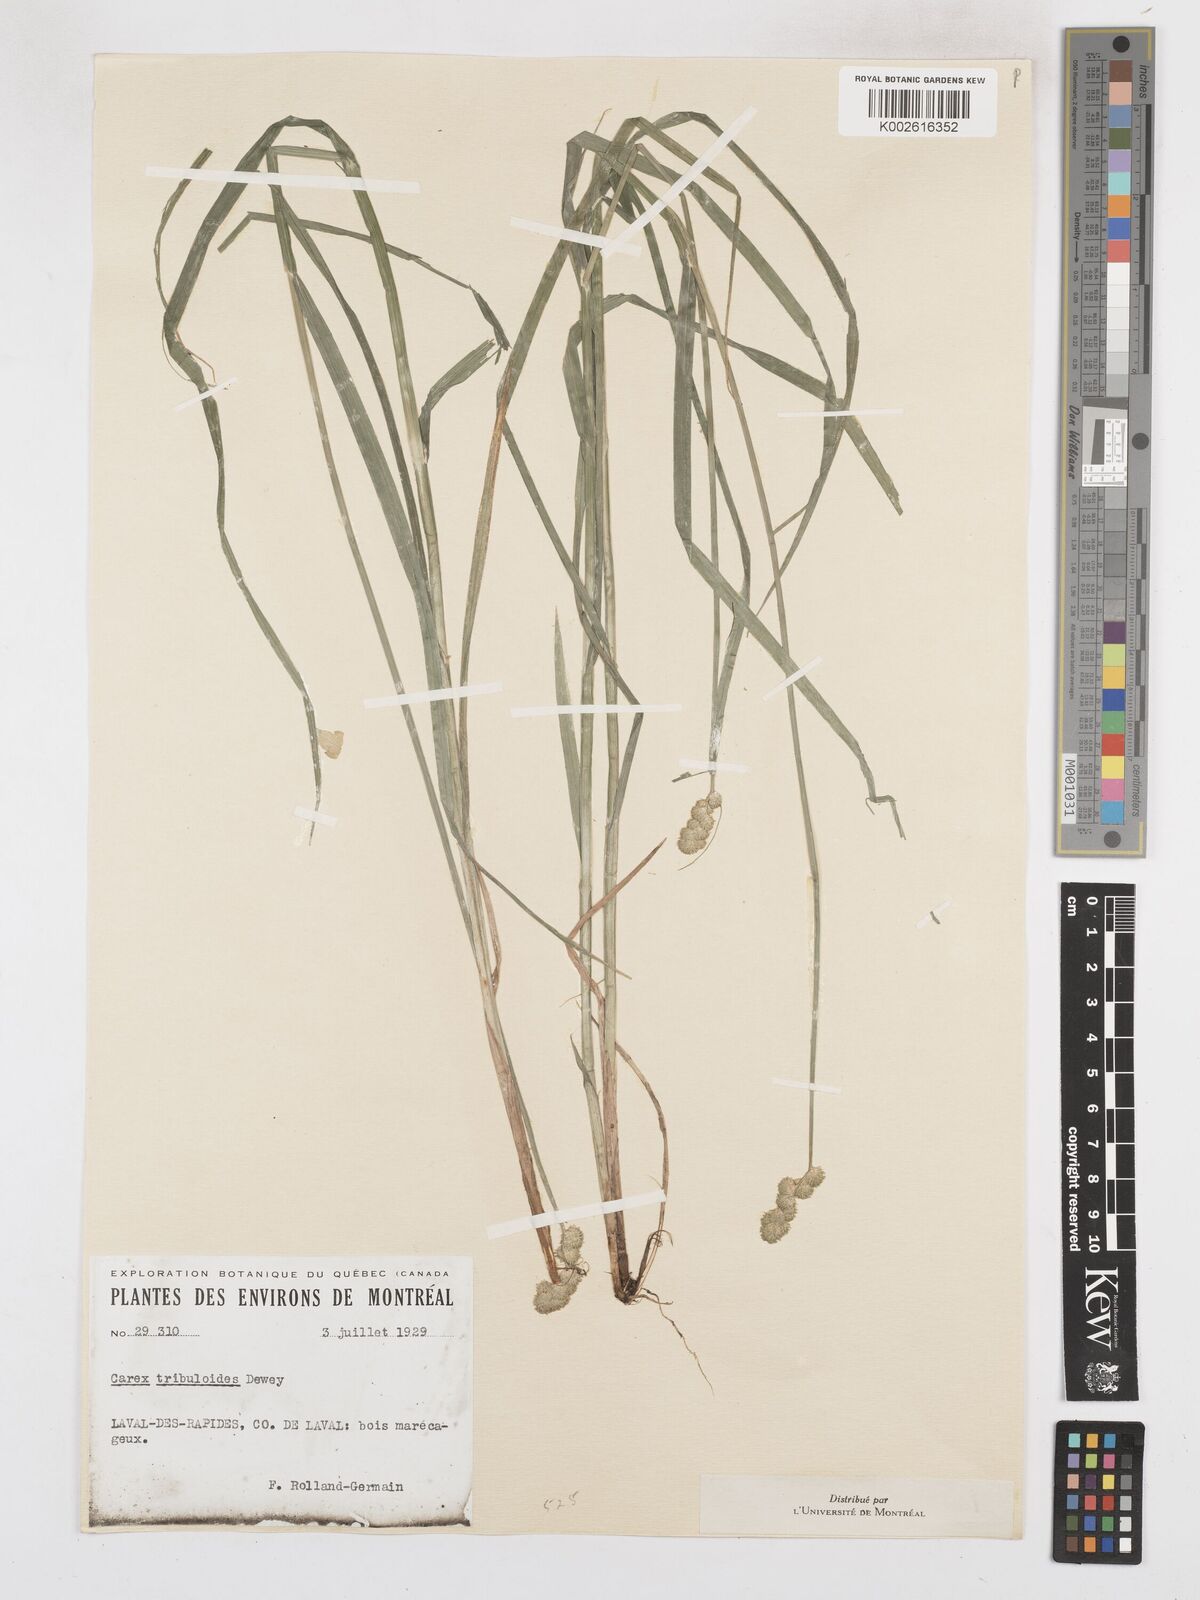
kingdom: Plantae
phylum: Tracheophyta
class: Liliopsida
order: Poales
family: Cyperaceae
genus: Carex
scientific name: Carex tribuloides
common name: Blunt broom sedge
